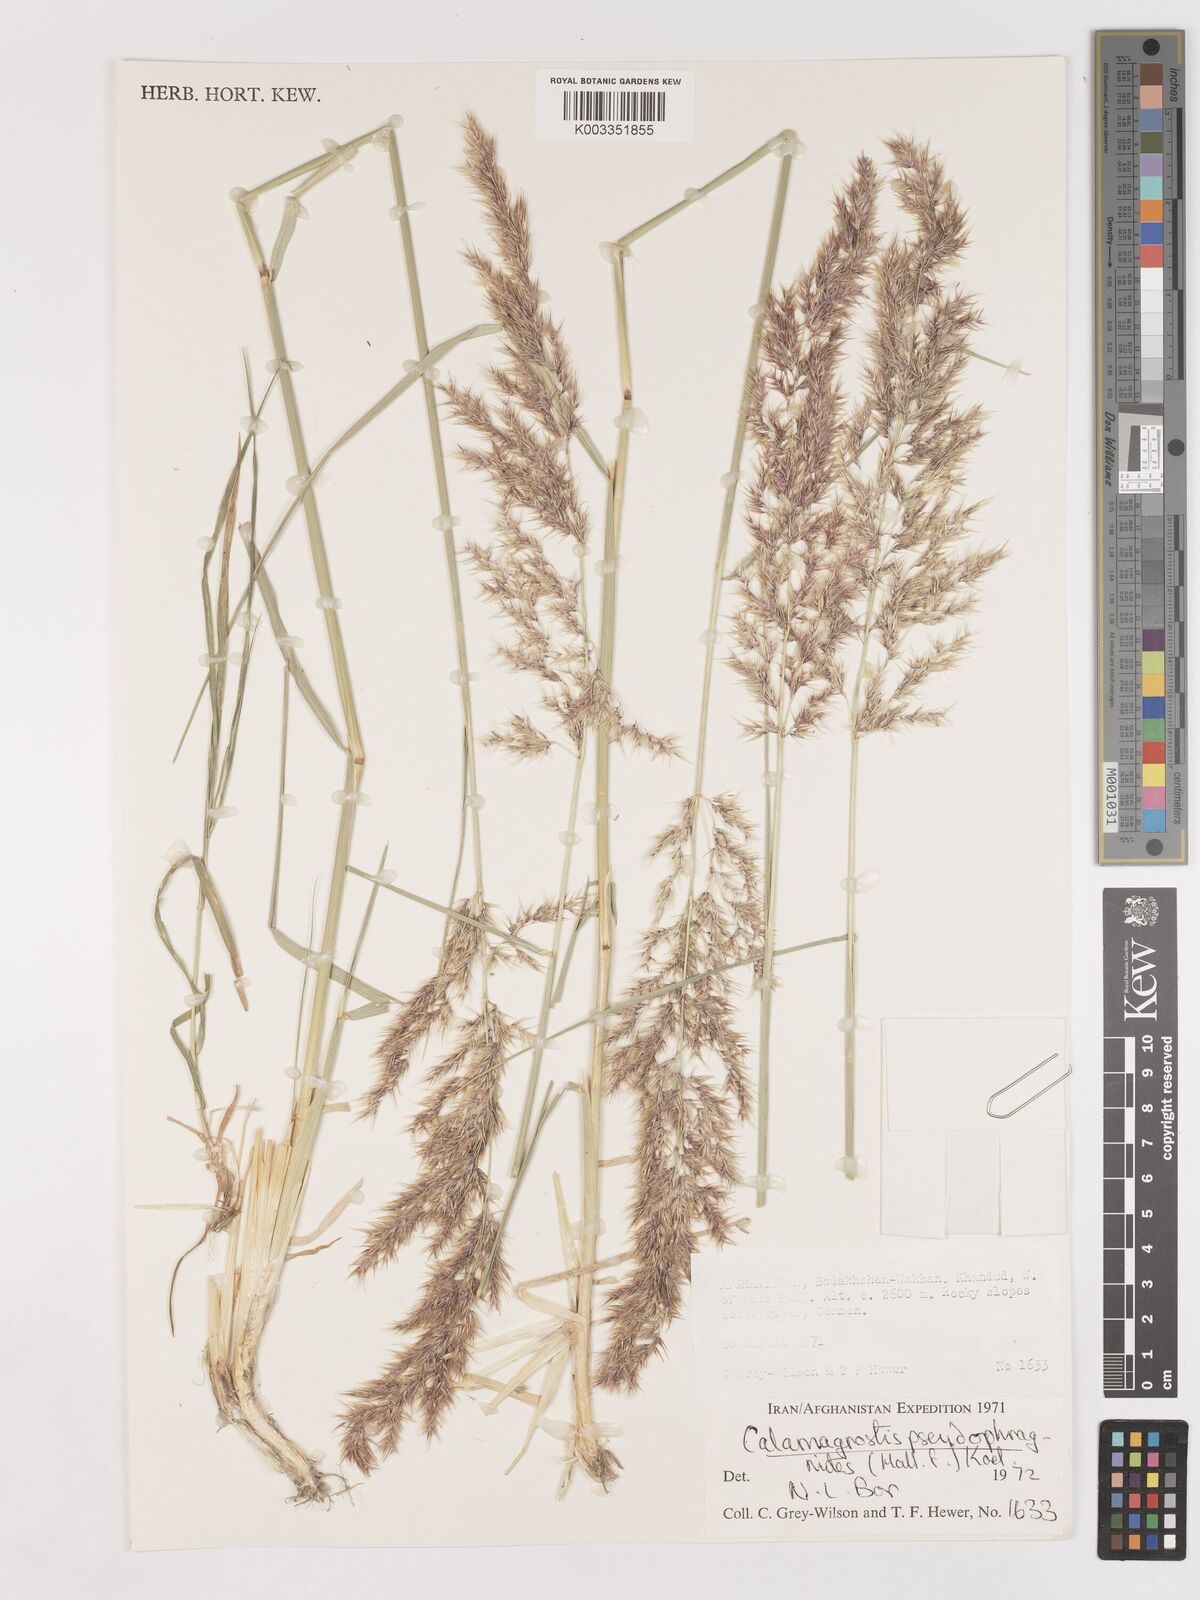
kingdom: Plantae
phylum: Tracheophyta
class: Liliopsida
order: Poales
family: Poaceae
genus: Calamagrostis
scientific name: Calamagrostis purpurea
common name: Scandinavian small-reed
